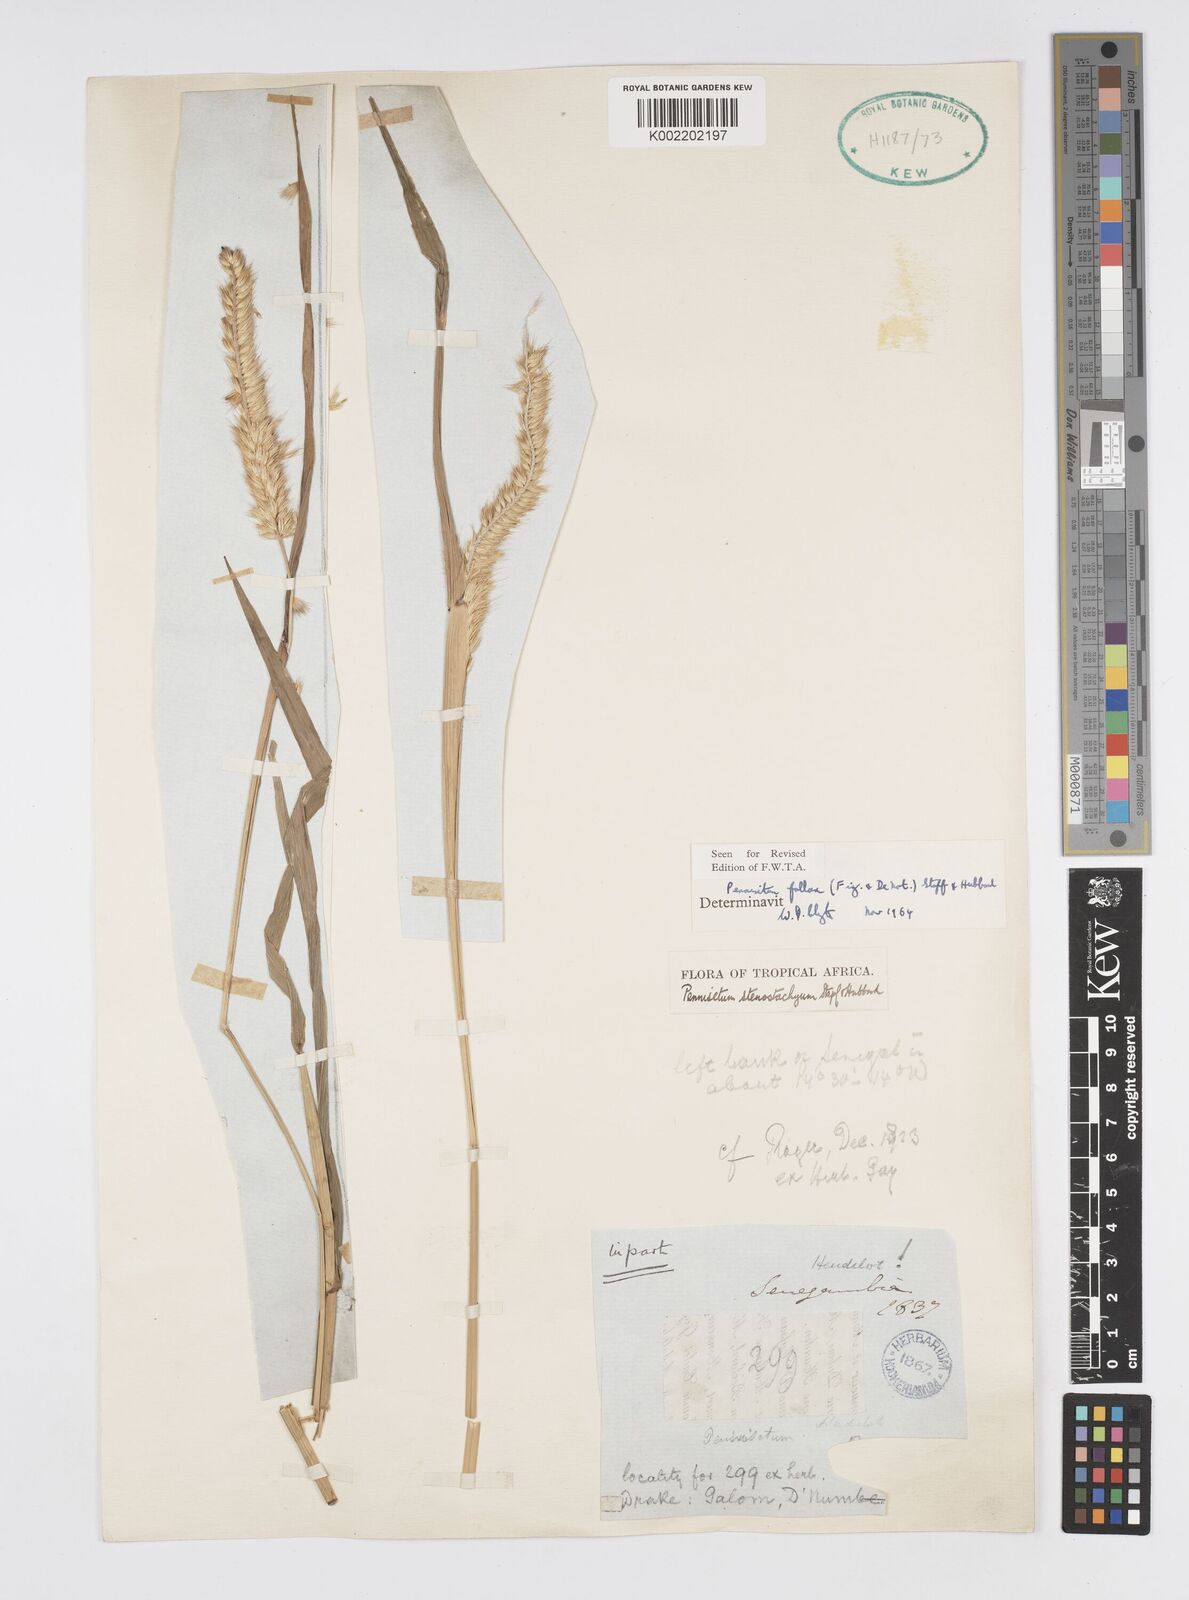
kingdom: Plantae
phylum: Tracheophyta
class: Liliopsida
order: Poales
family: Poaceae
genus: Cenchrus
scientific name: Cenchrus violaceus
